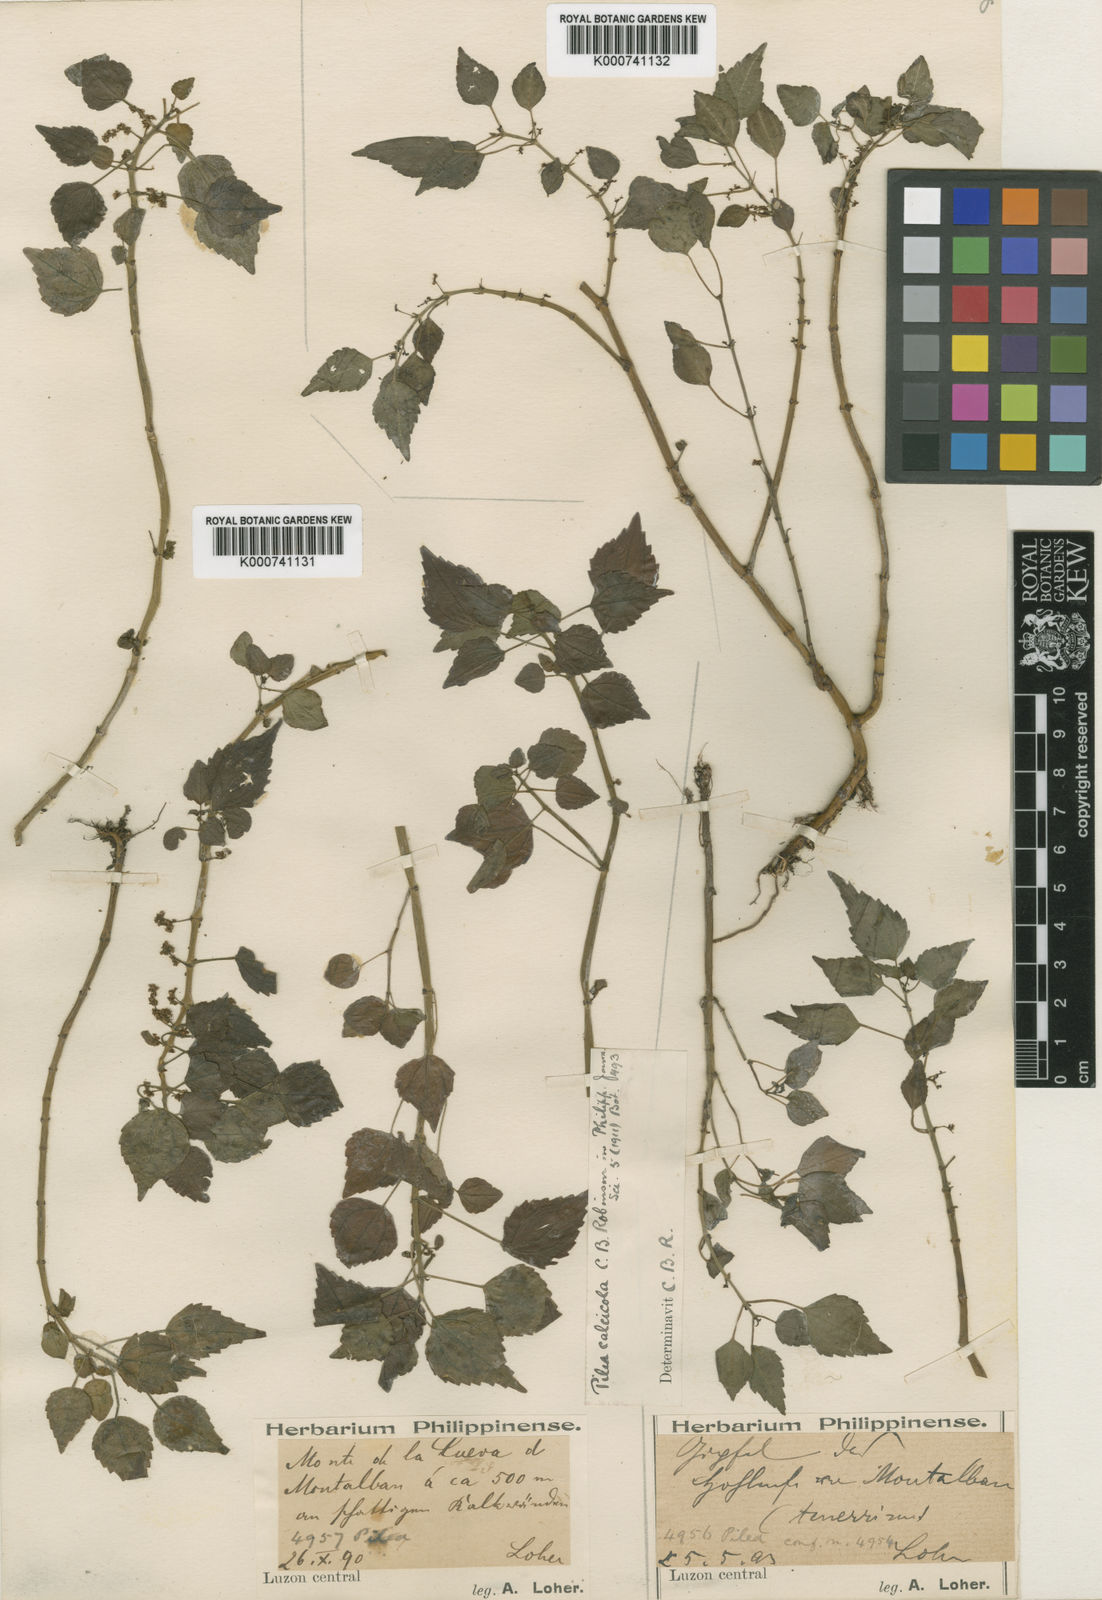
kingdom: Plantae
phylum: Tracheophyta
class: Magnoliopsida
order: Rosales
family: Urticaceae
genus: Pilea
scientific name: Pilea calcicola
